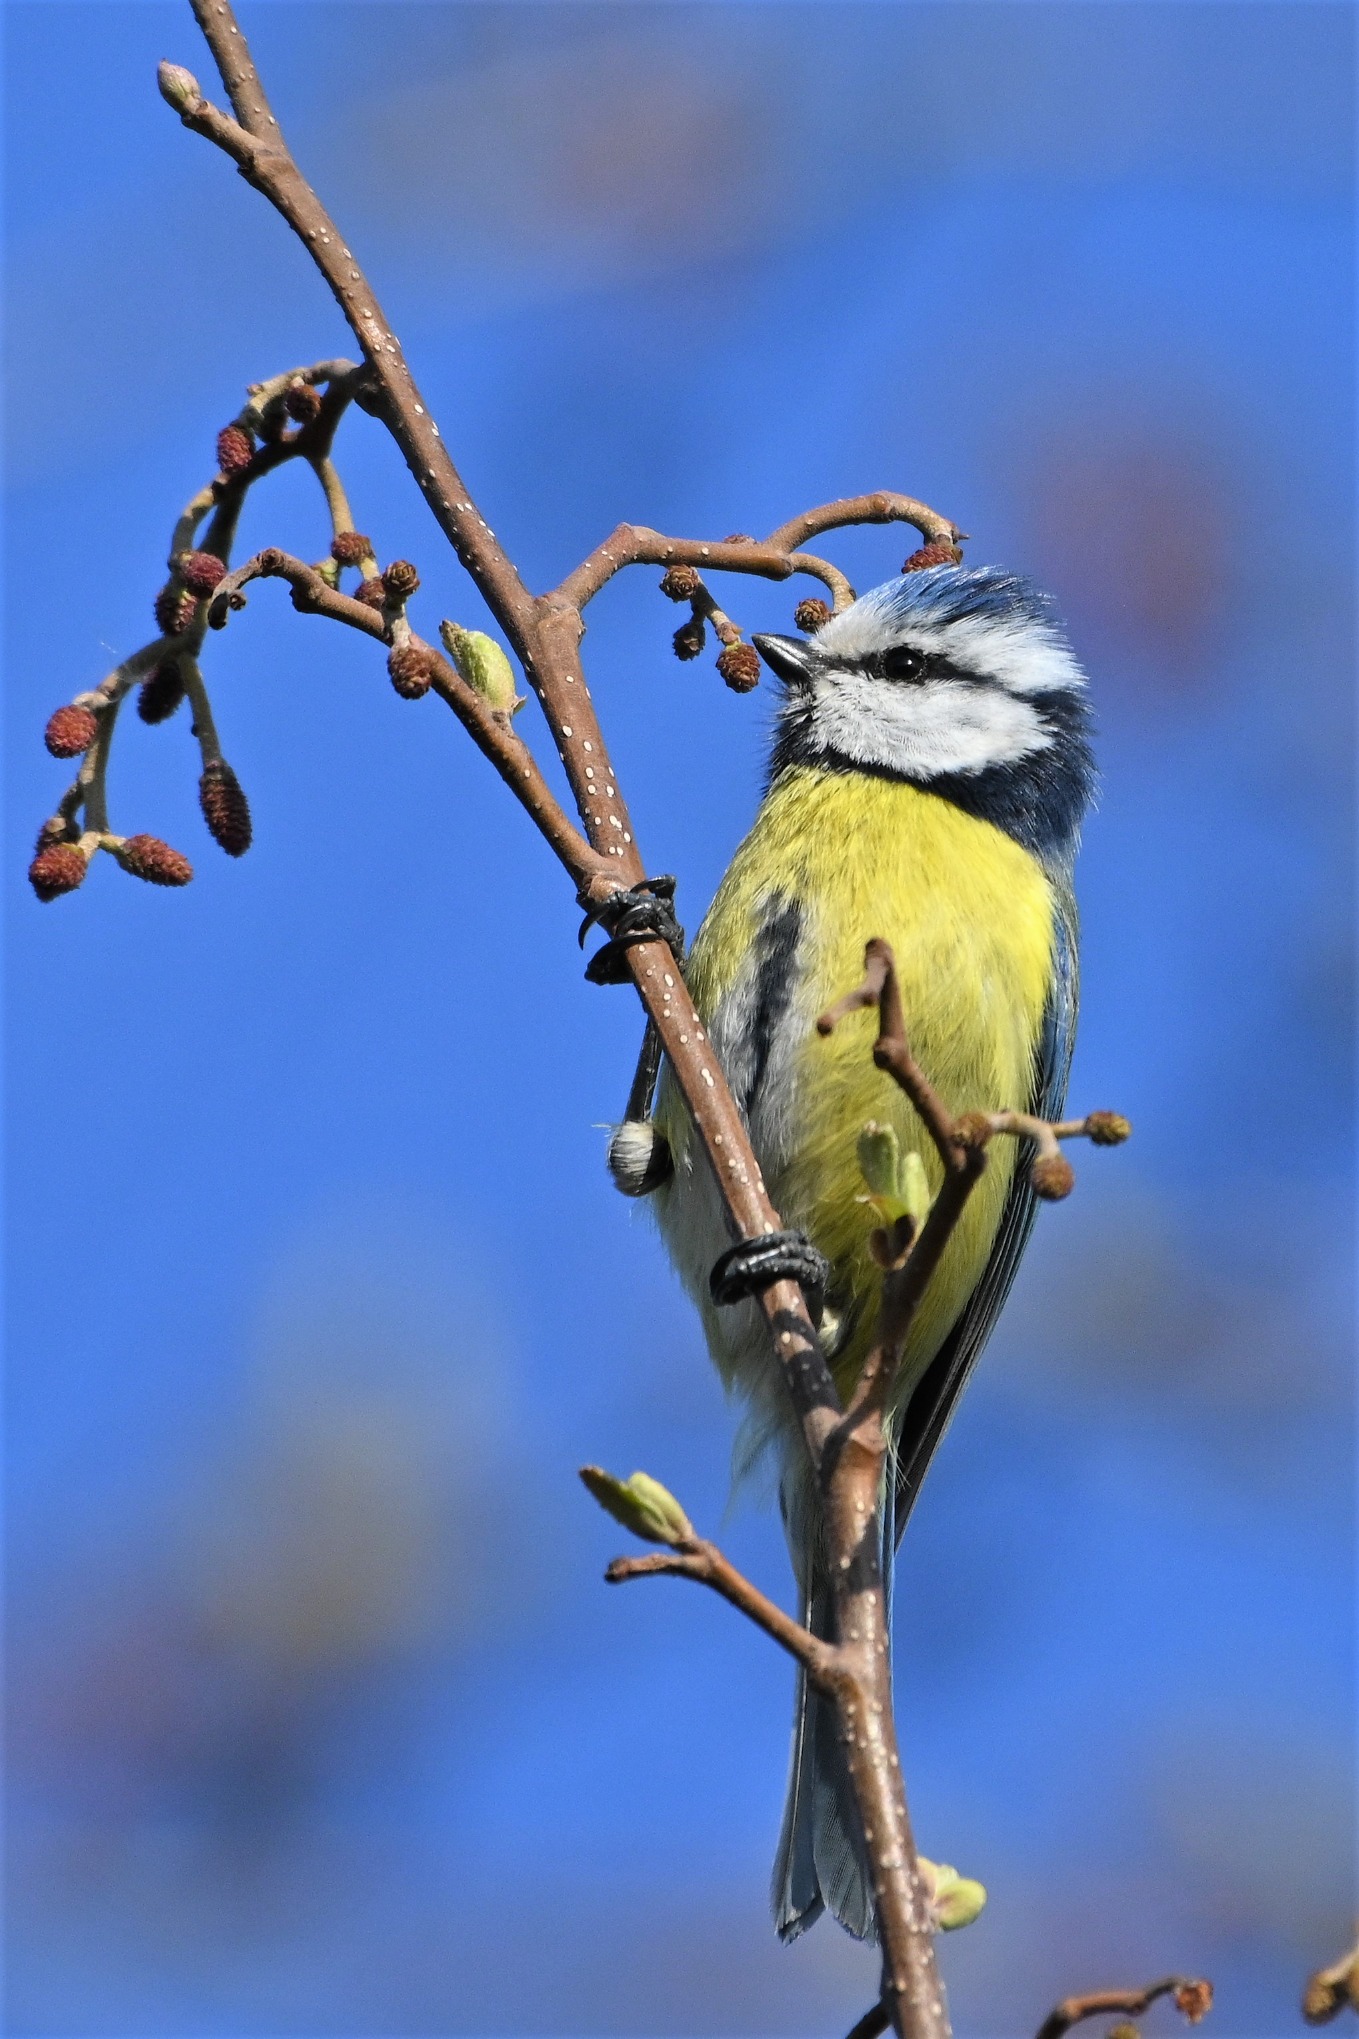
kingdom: Animalia
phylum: Chordata
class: Aves
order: Passeriformes
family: Paridae
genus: Cyanistes
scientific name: Cyanistes caeruleus
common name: Blåmejse
